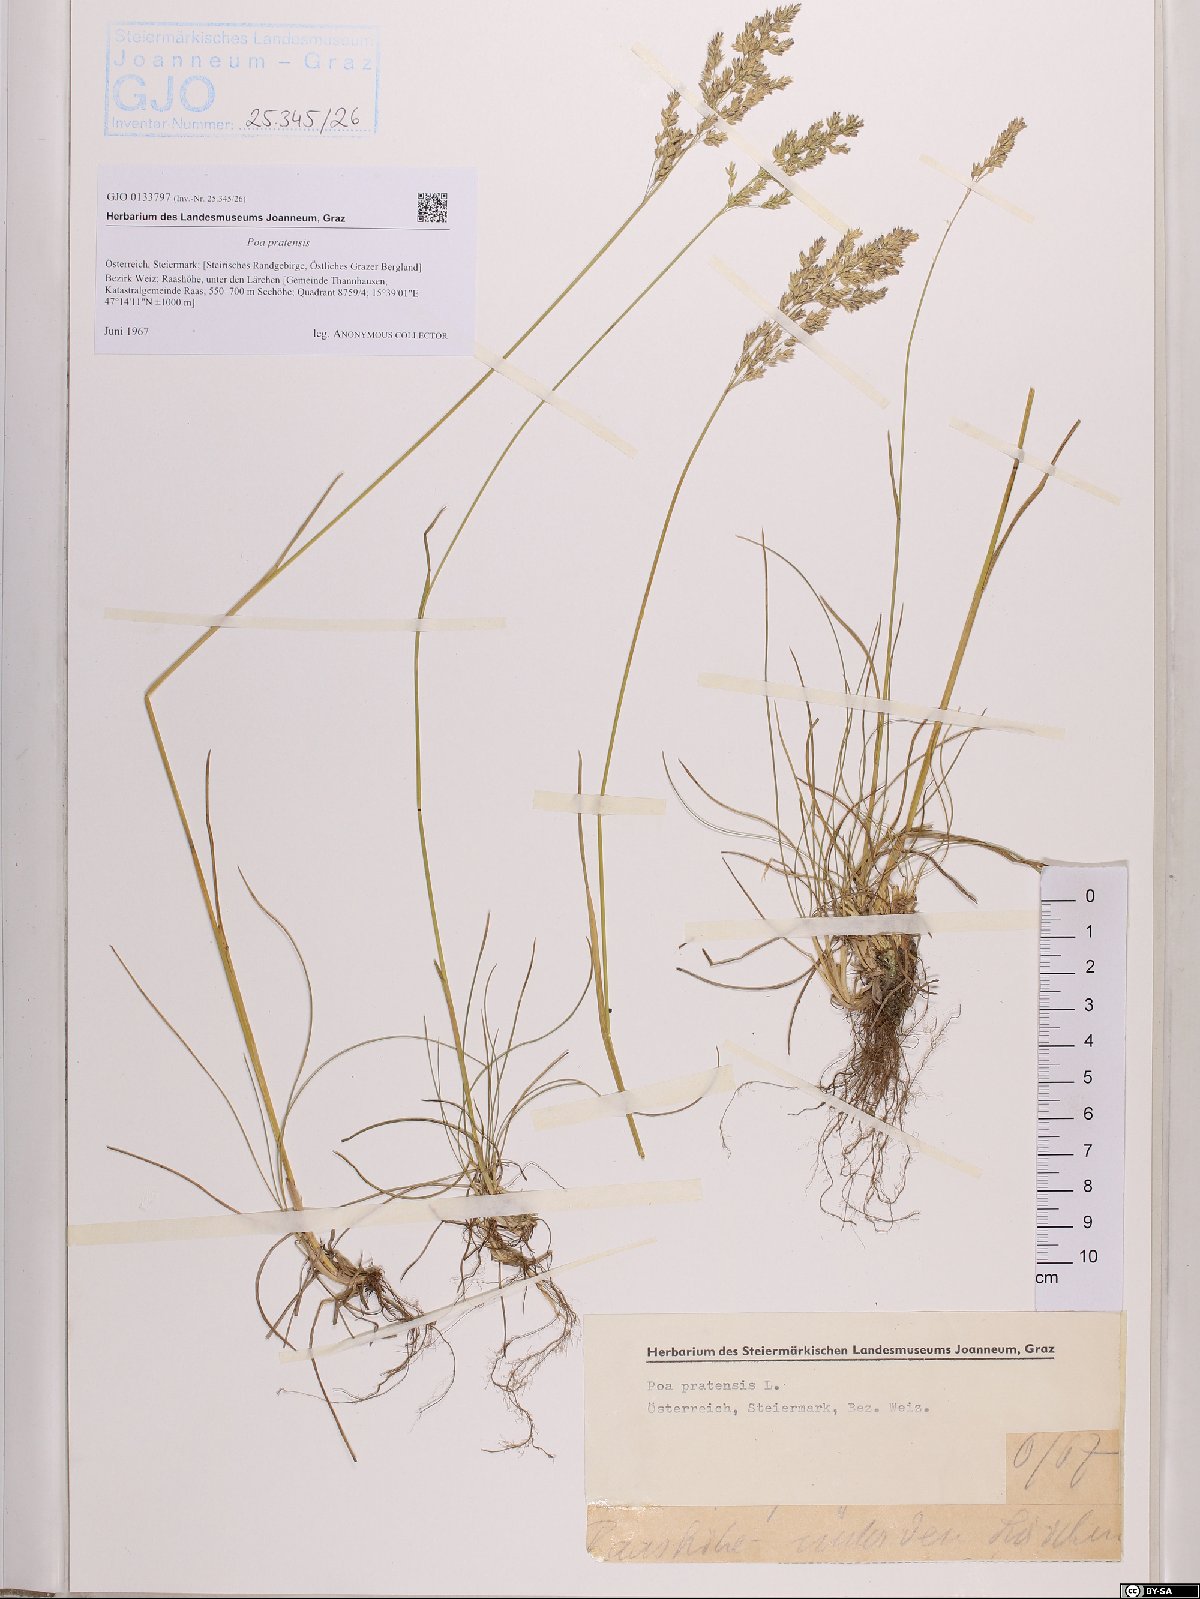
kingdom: Plantae
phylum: Tracheophyta
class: Liliopsida
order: Poales
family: Poaceae
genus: Poa
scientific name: Poa pratensis
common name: Kentucky bluegrass
